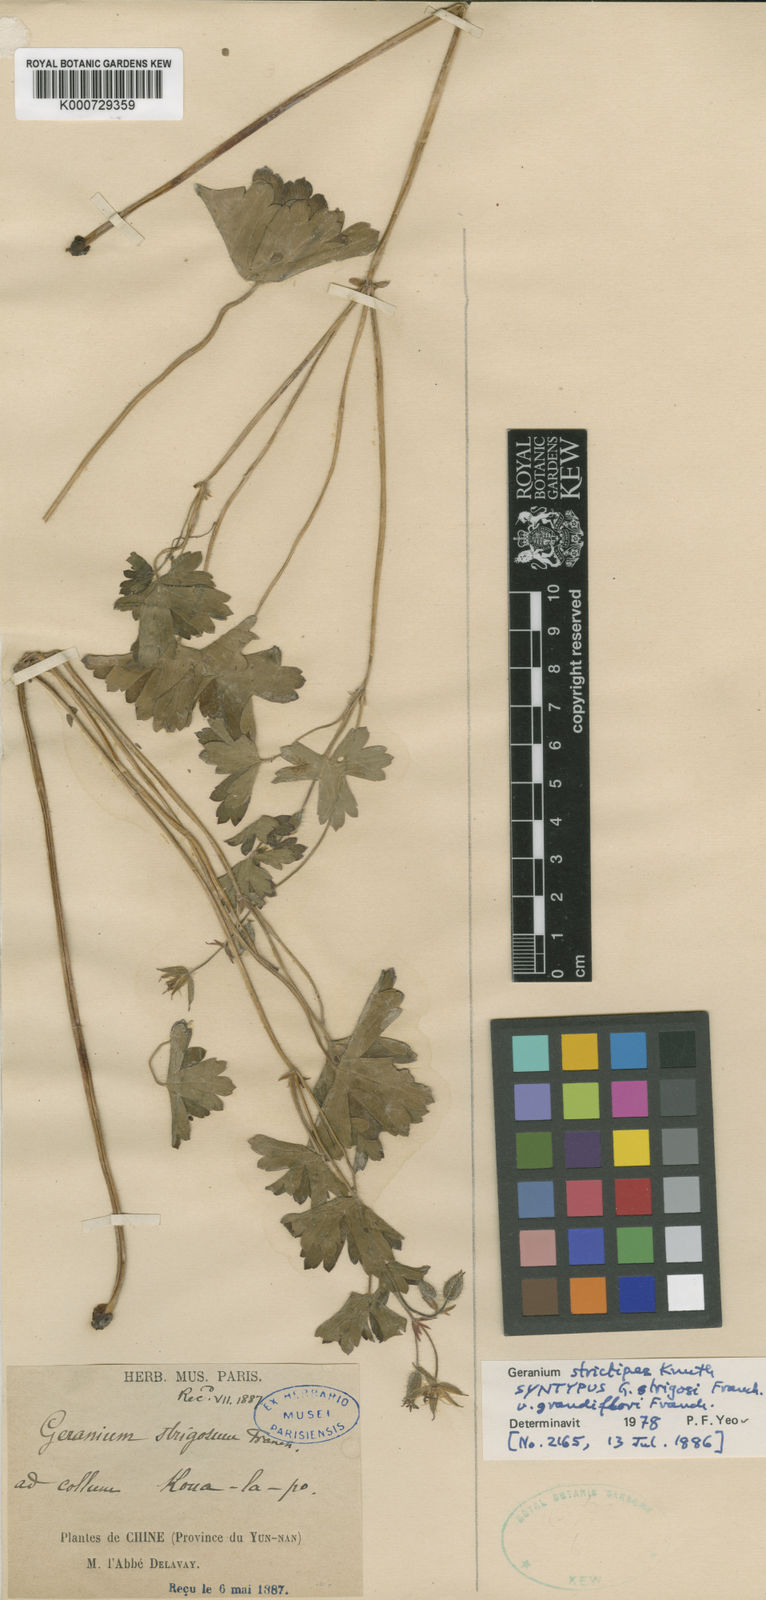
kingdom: Plantae
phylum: Tracheophyta
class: Magnoliopsida
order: Geraniales
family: Geraniaceae
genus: Geranium
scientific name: Geranium strictipes
